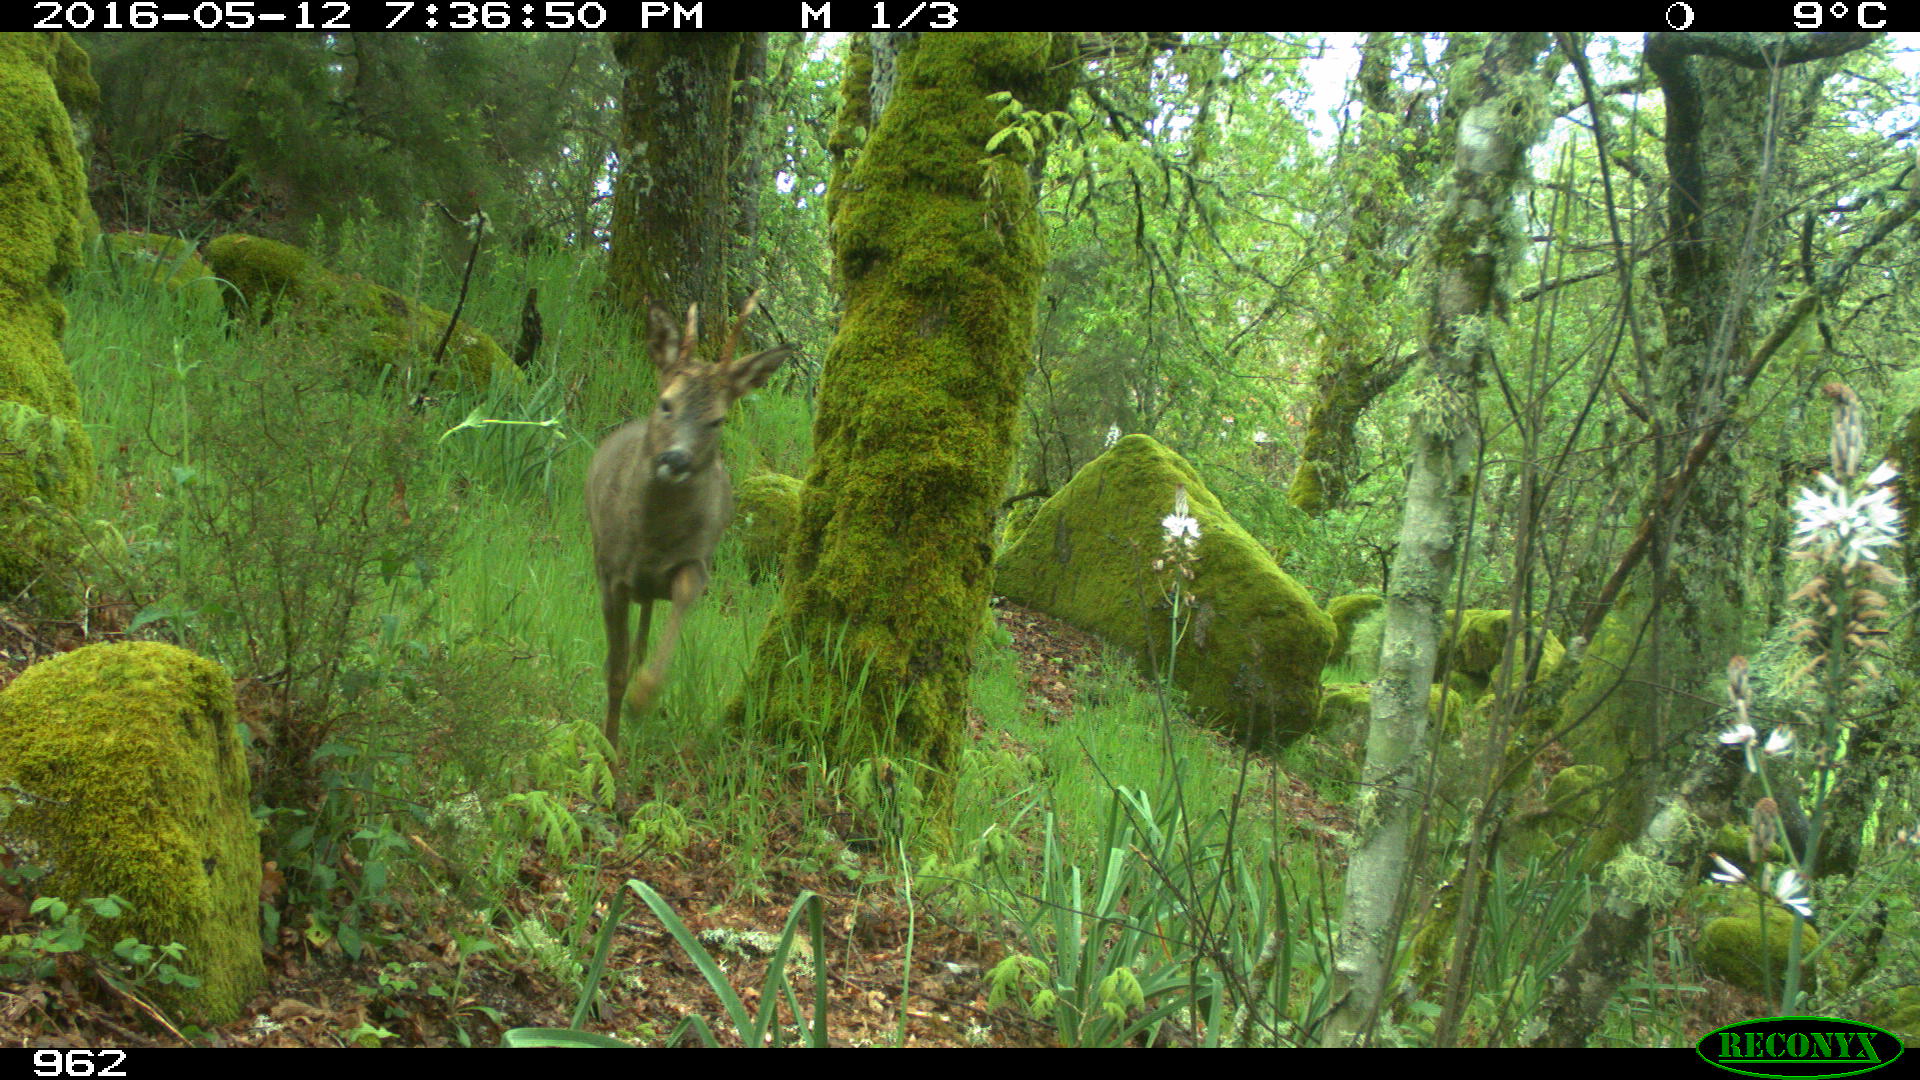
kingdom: Animalia
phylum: Chordata
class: Mammalia
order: Artiodactyla
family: Cervidae
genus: Capreolus
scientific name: Capreolus capreolus
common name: Western roe deer
